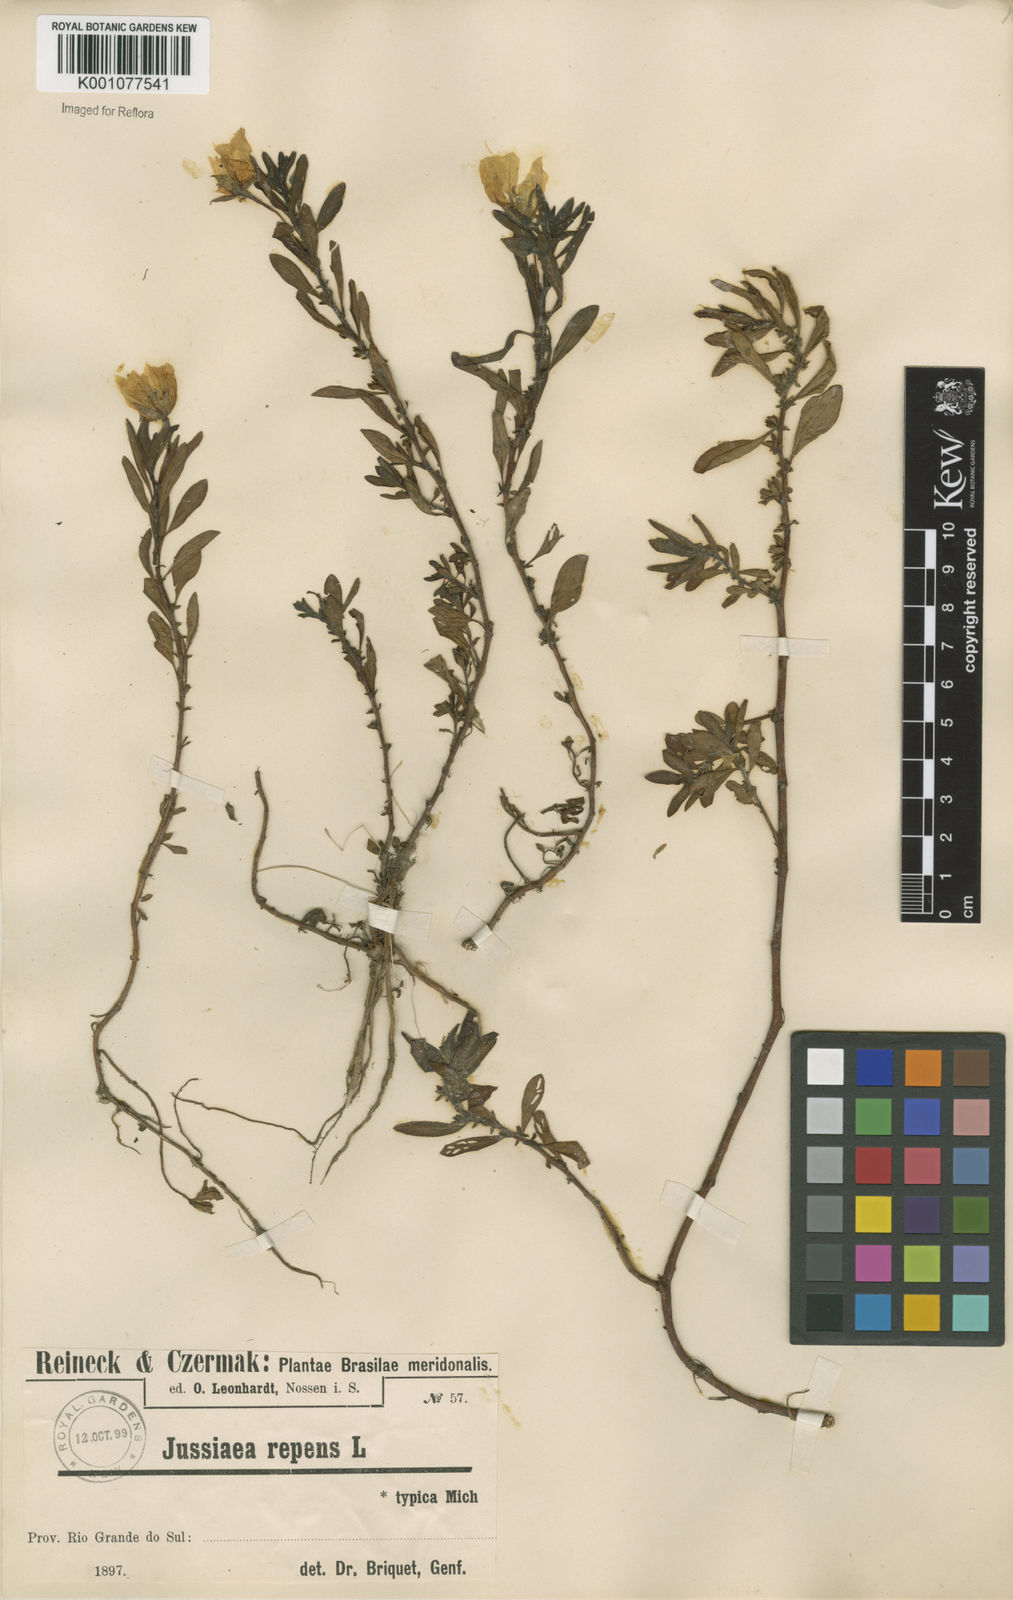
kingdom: Plantae
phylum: Tracheophyta
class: Magnoliopsida
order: Myrtales
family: Onagraceae
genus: Ludwigia
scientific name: Ludwigia adscendens
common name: Creeping water primrose
